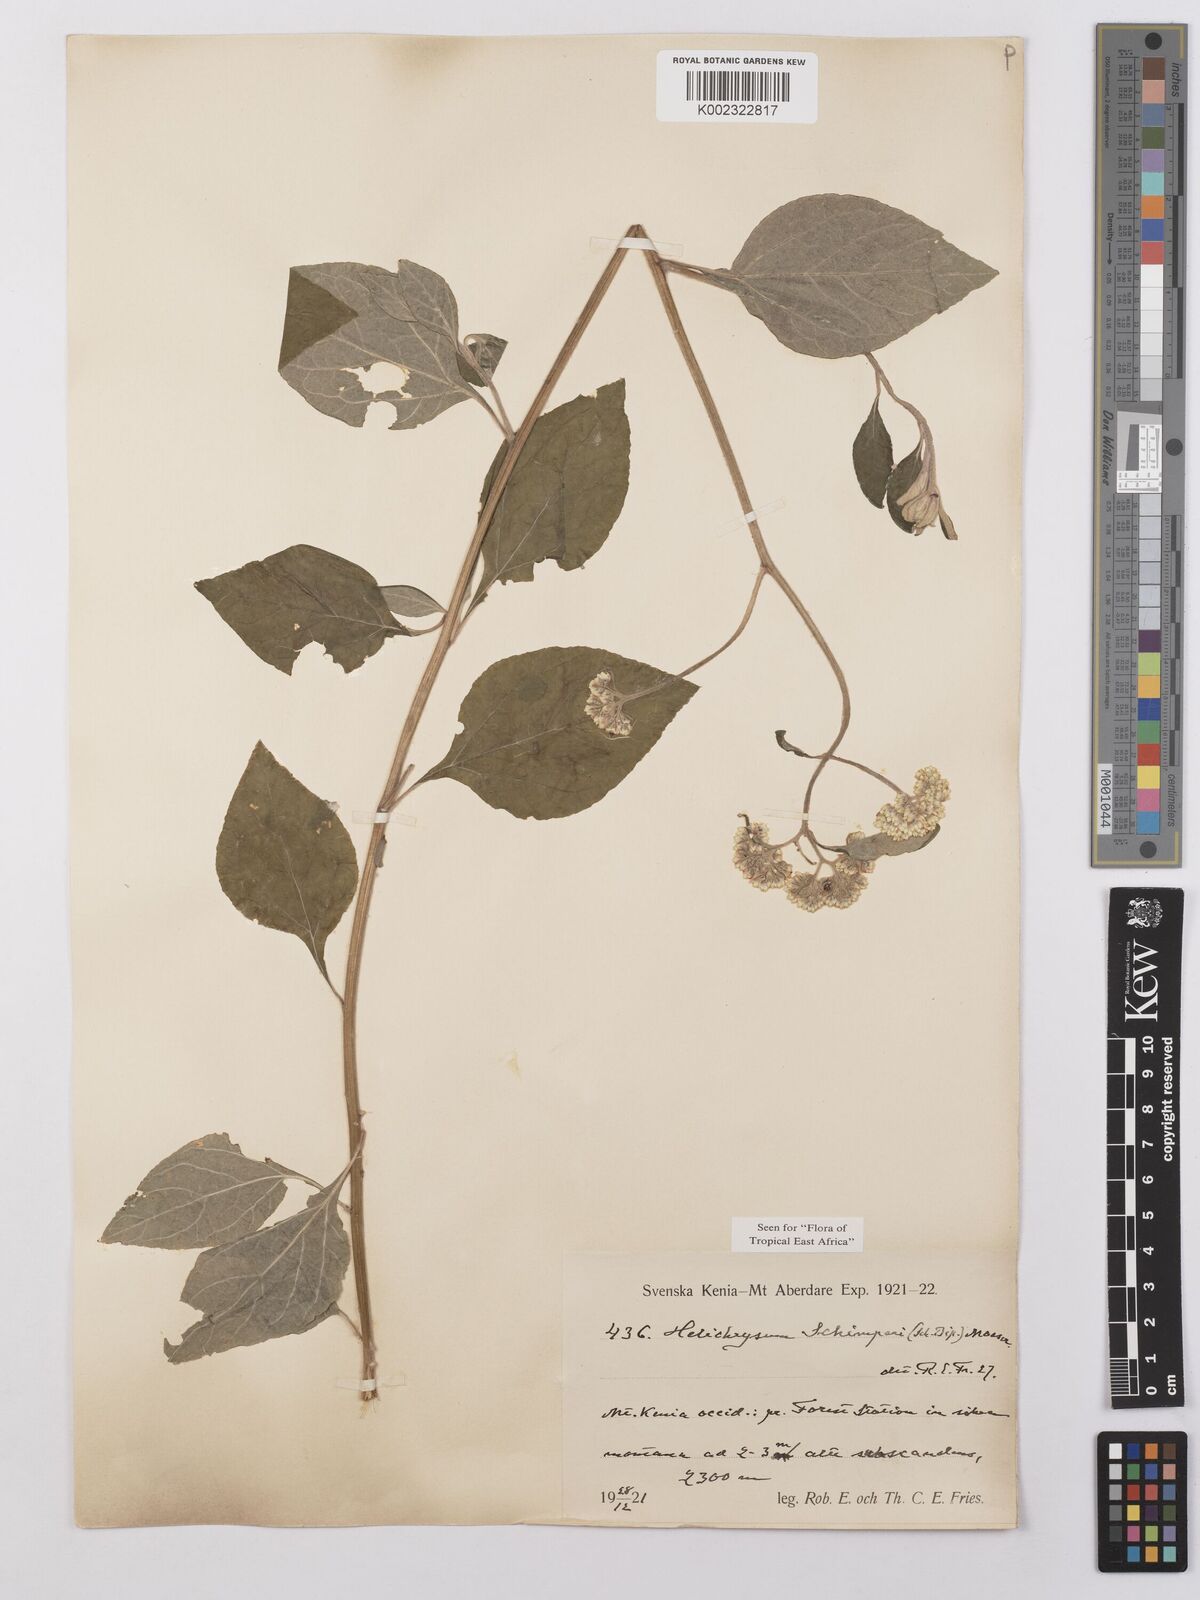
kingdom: Plantae
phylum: Tracheophyta
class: Magnoliopsida
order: Asterales
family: Asteraceae
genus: Helichrysum
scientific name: Helichrysum schimperi
